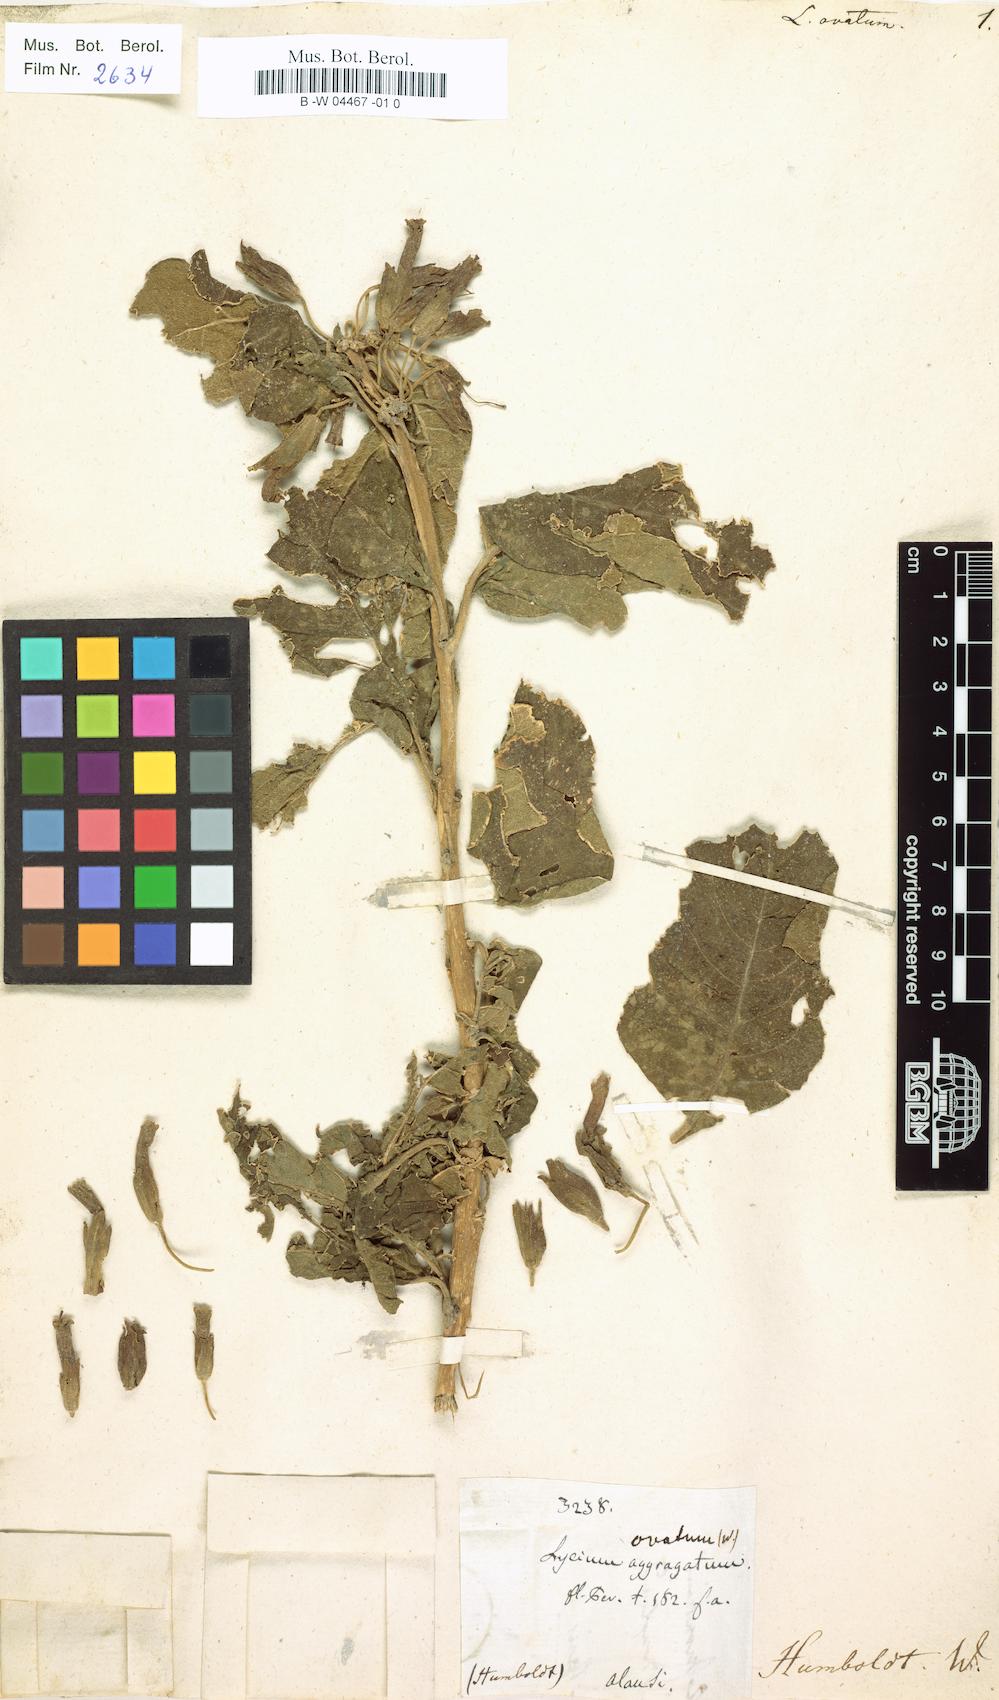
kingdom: Plantae
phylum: Tracheophyta
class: Magnoliopsida
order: Solanales
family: Solanaceae
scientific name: Solanaceae
